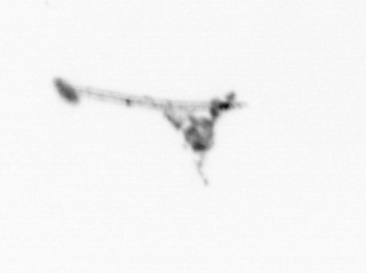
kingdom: Animalia
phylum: Cnidaria
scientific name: Cnidaria
